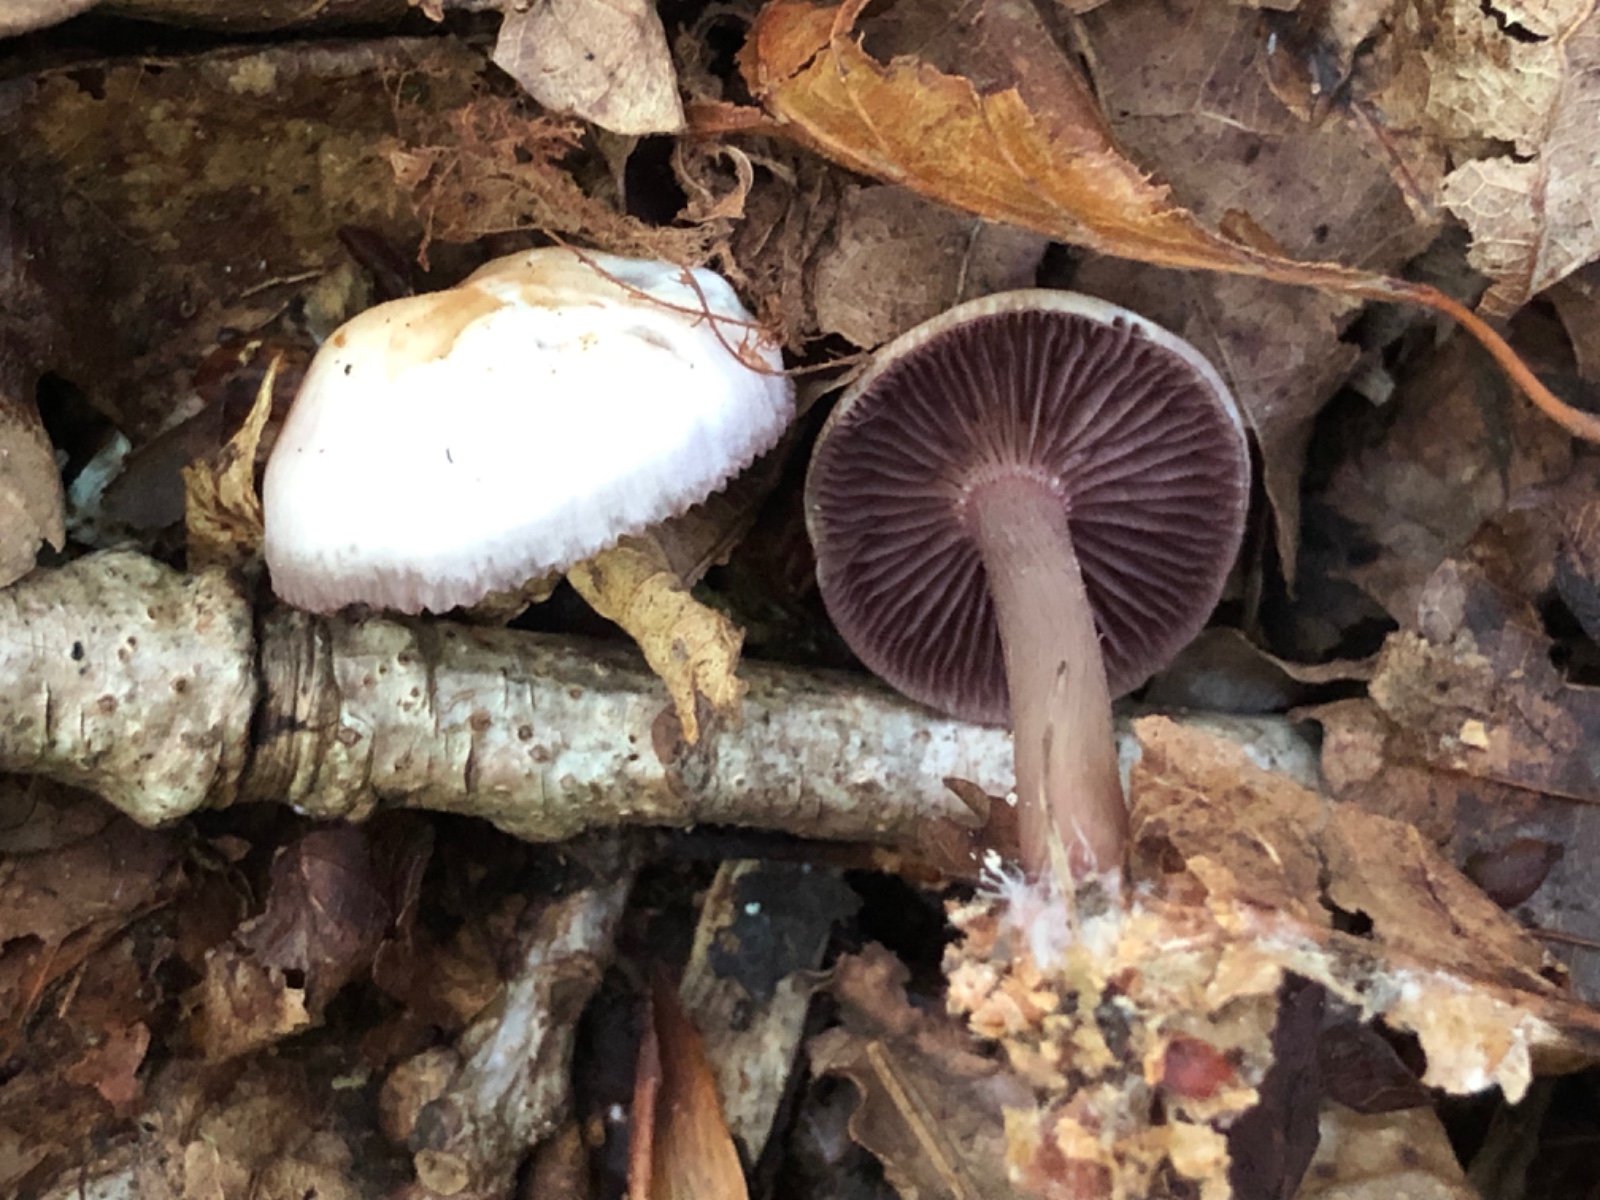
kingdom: Fungi
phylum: Basidiomycota
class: Agaricomycetes
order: Agaricales
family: Mycenaceae
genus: Mycena
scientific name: Mycena pelianthina
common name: mørkbladet huesvamp
